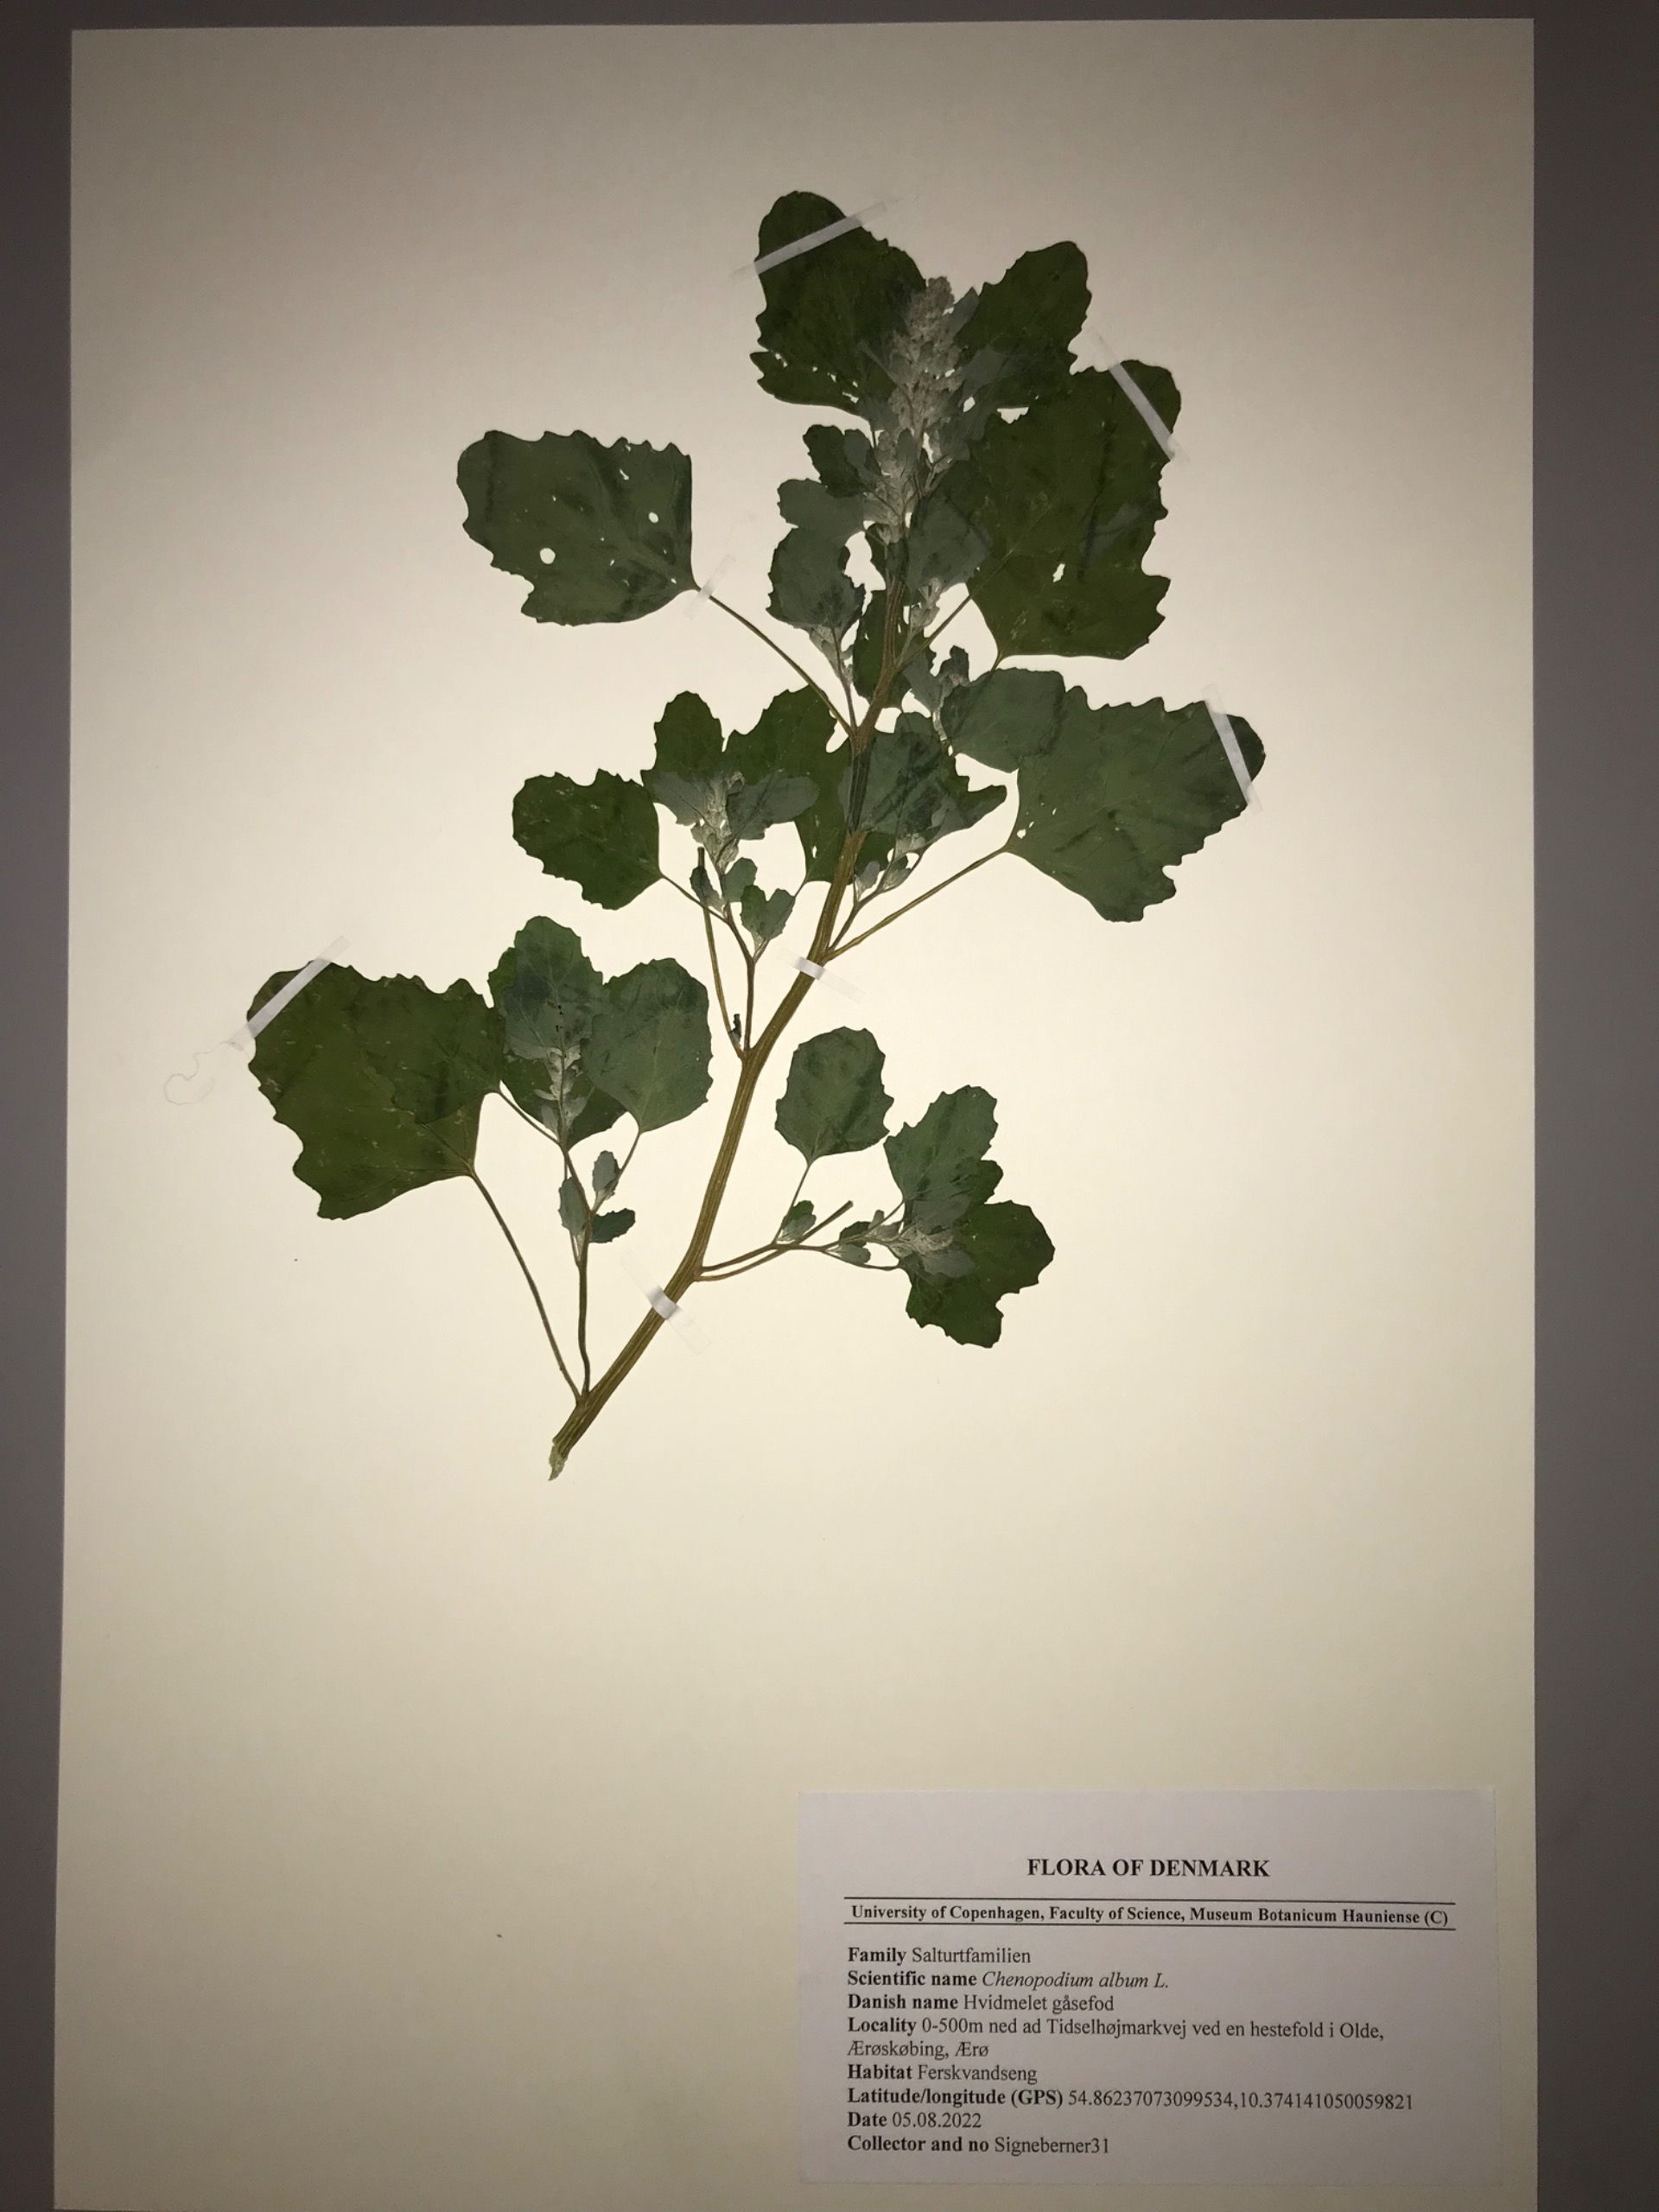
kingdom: Plantae
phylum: Tracheophyta
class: Magnoliopsida
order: Caryophyllales
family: Amaranthaceae
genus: Chenopodium
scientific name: Chenopodium album
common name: Hvidmelet gåsefod
